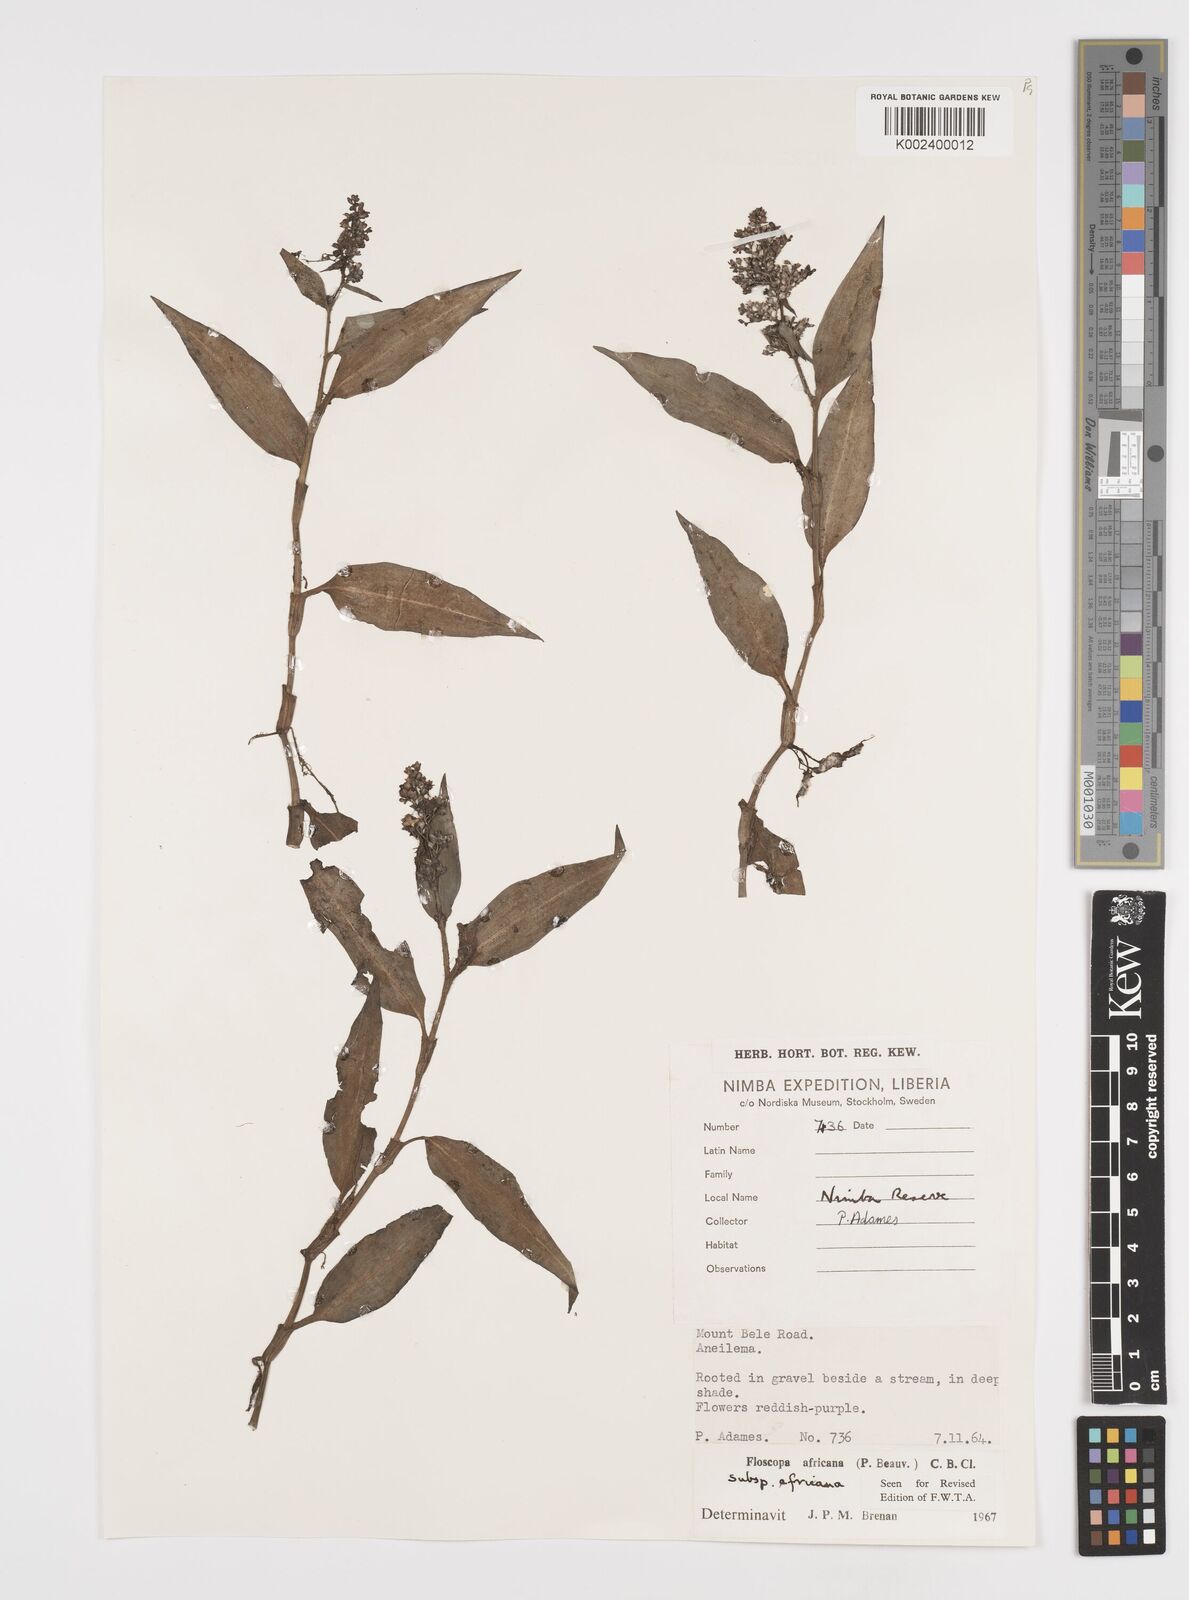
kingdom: Plantae
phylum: Tracheophyta
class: Liliopsida
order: Commelinales
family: Commelinaceae
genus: Floscopa
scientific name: Floscopa africana
